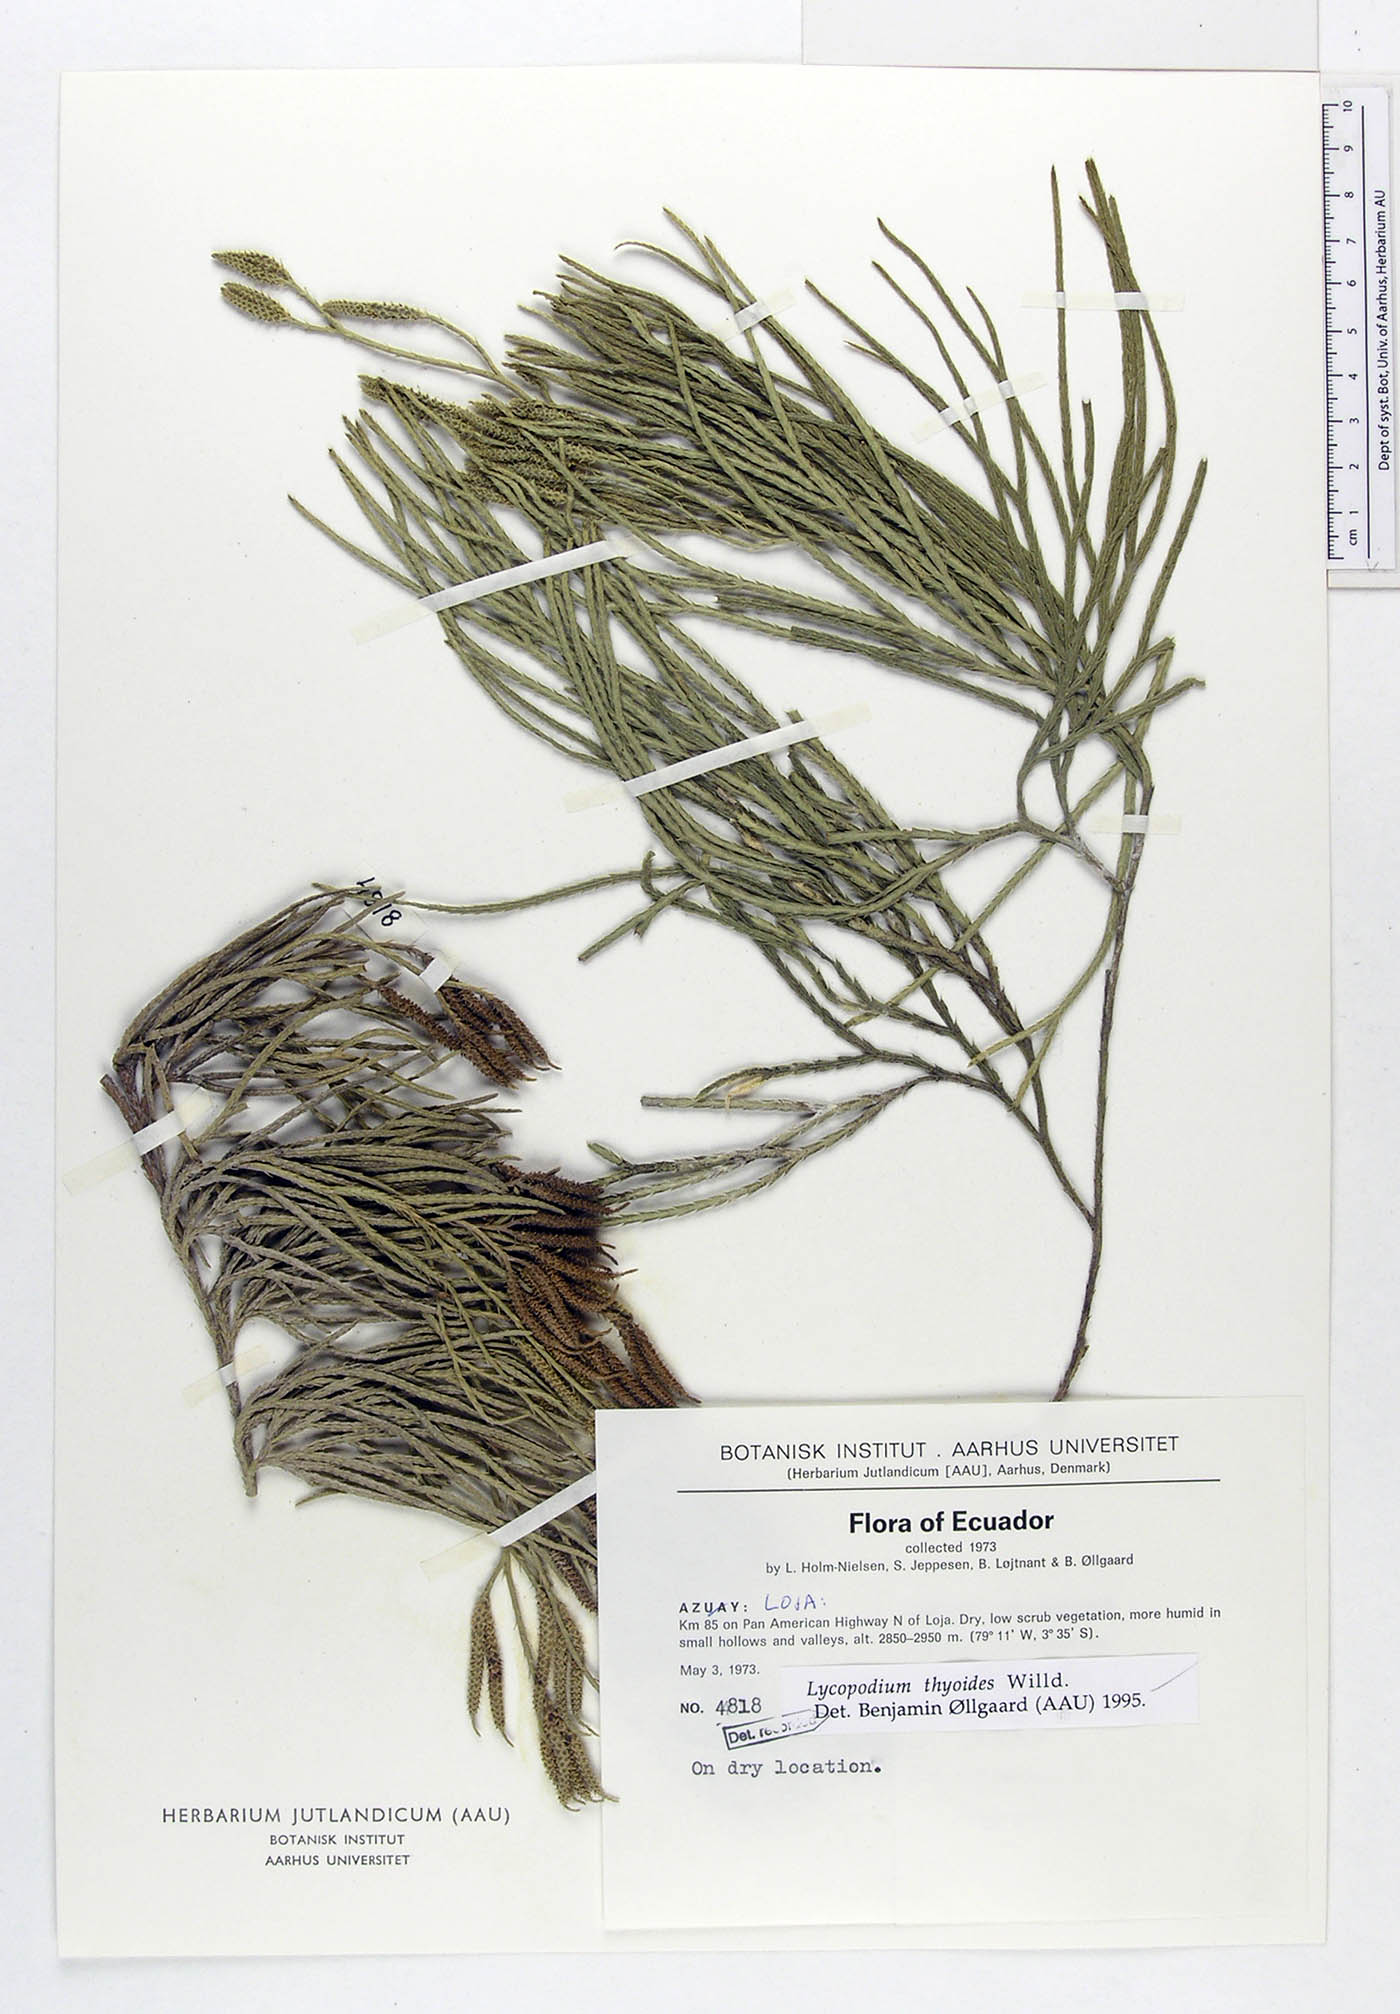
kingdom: Plantae
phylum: Tracheophyta
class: Lycopodiopsida
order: Lycopodiales
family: Lycopodiaceae
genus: Diphasiastrum
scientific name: Diphasiastrum thyoides
